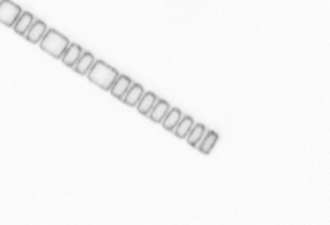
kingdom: Chromista
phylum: Ochrophyta
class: Bacillariophyceae
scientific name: Bacillariophyceae
